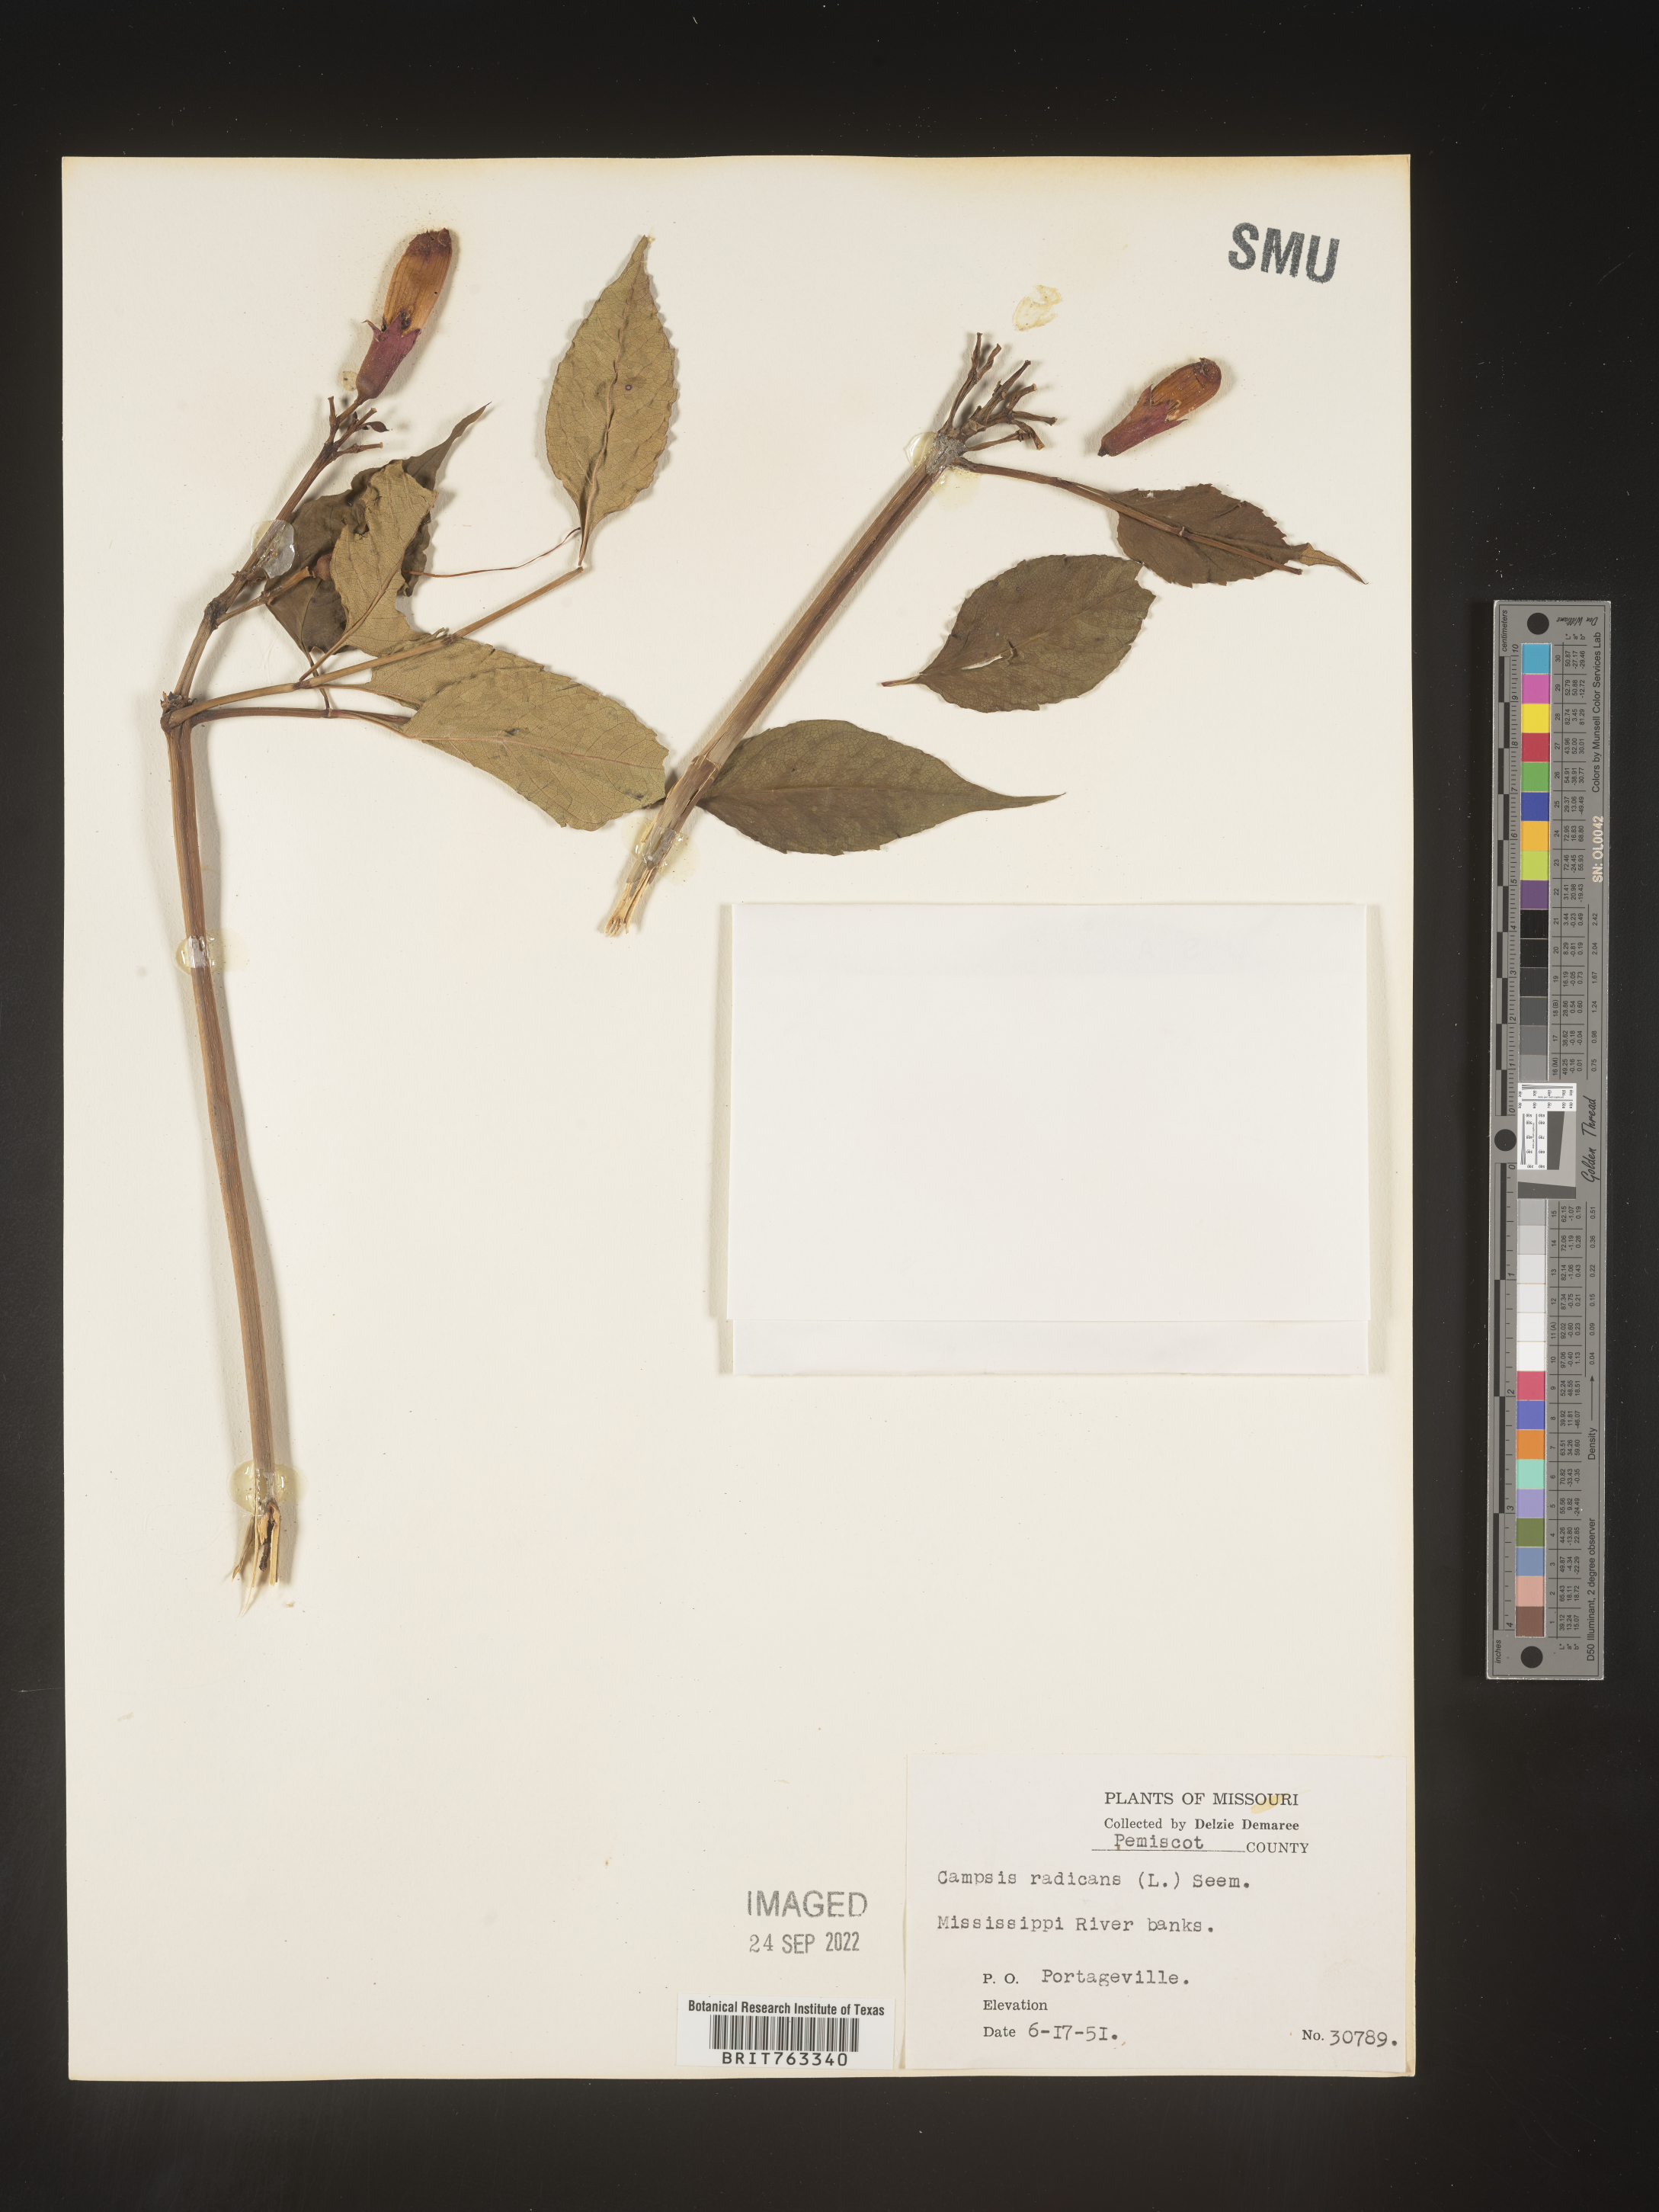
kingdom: Plantae
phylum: Tracheophyta
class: Magnoliopsida
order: Lamiales
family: Bignoniaceae
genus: Campsis
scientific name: Campsis radicans
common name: Trumpet-creeper
